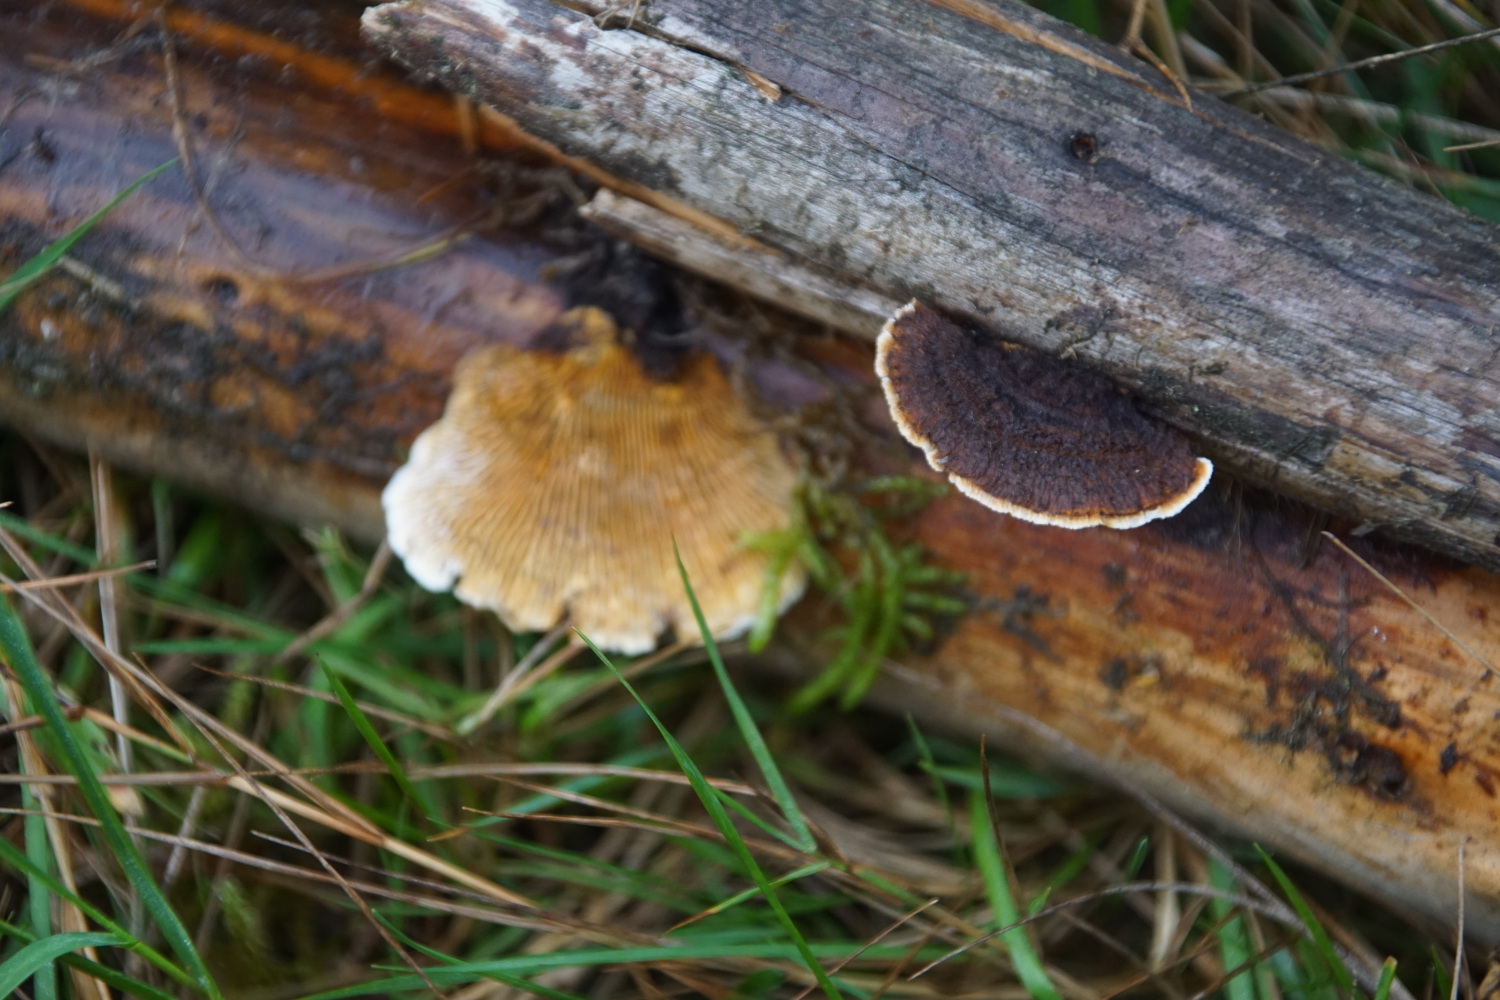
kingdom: Fungi
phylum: Basidiomycota
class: Agaricomycetes
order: Gloeophyllales
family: Gloeophyllaceae
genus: Gloeophyllum
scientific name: Gloeophyllum sepiarium
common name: fyrre-korkhat
